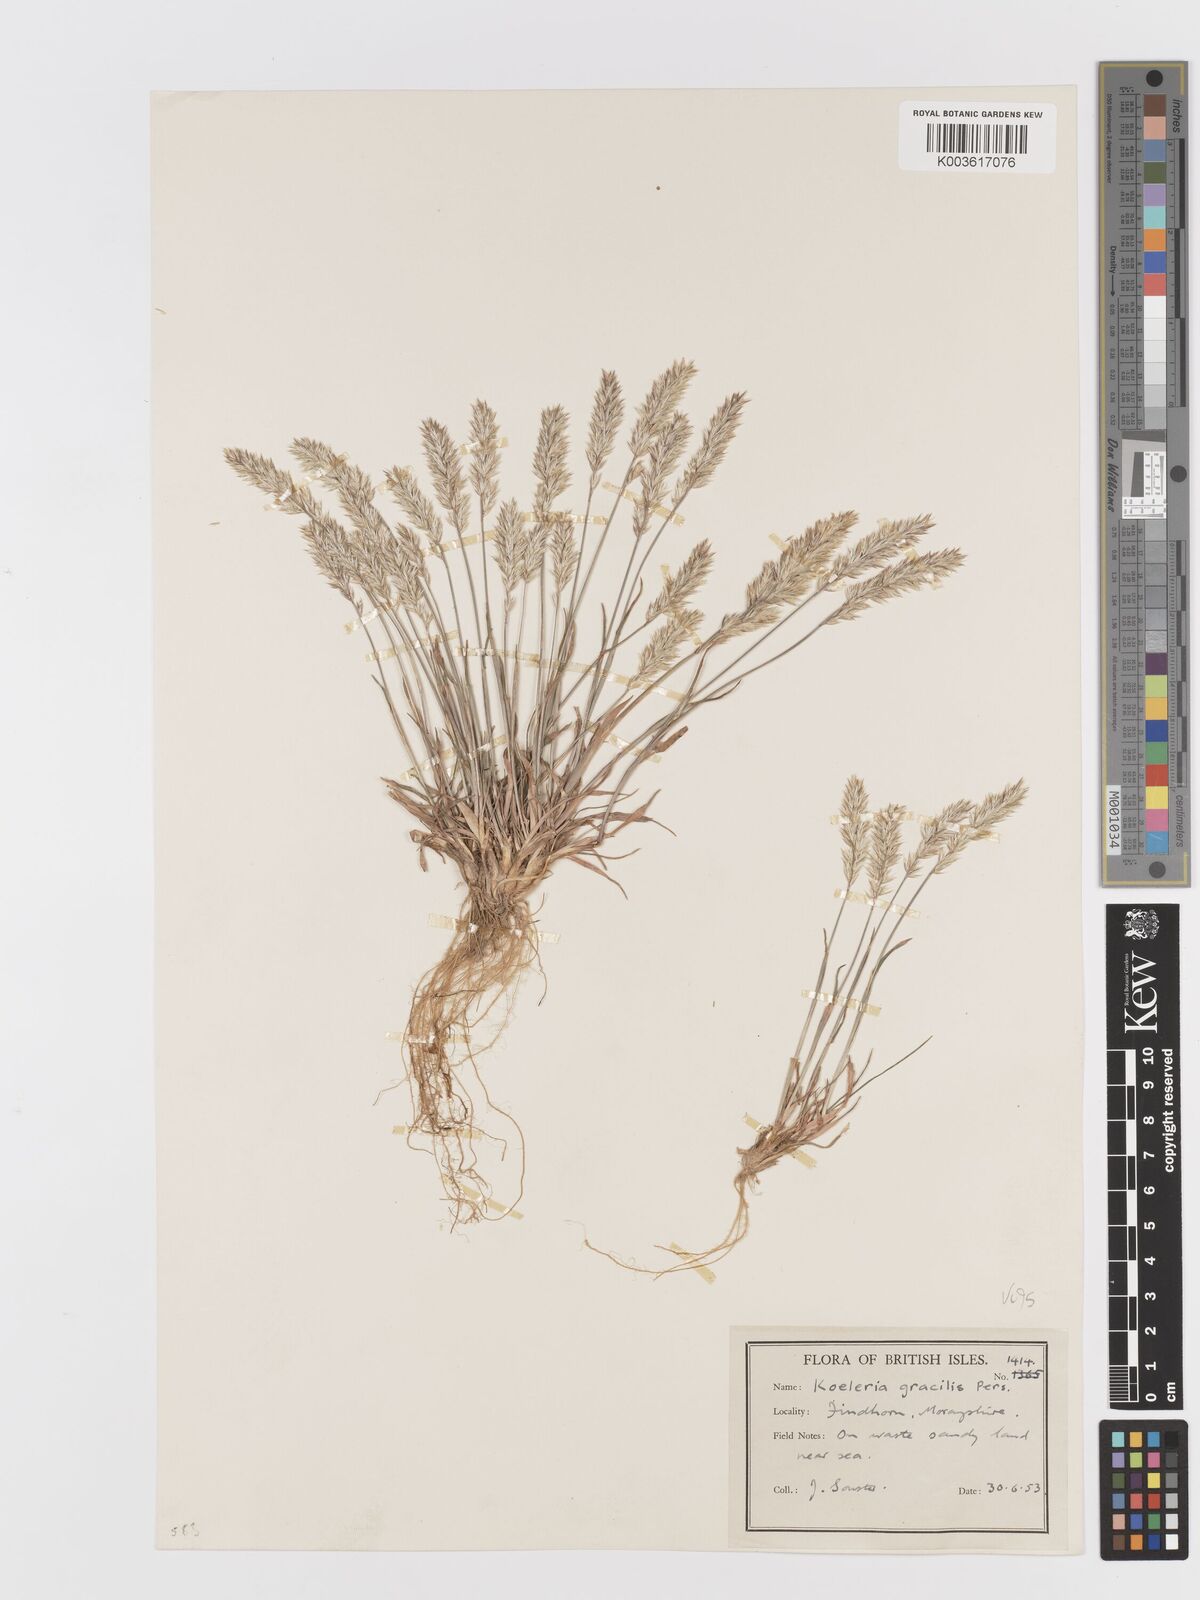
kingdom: Plantae
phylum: Tracheophyta
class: Liliopsida
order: Poales
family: Poaceae
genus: Koeleria
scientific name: Koeleria macrantha
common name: Crested hair-grass
